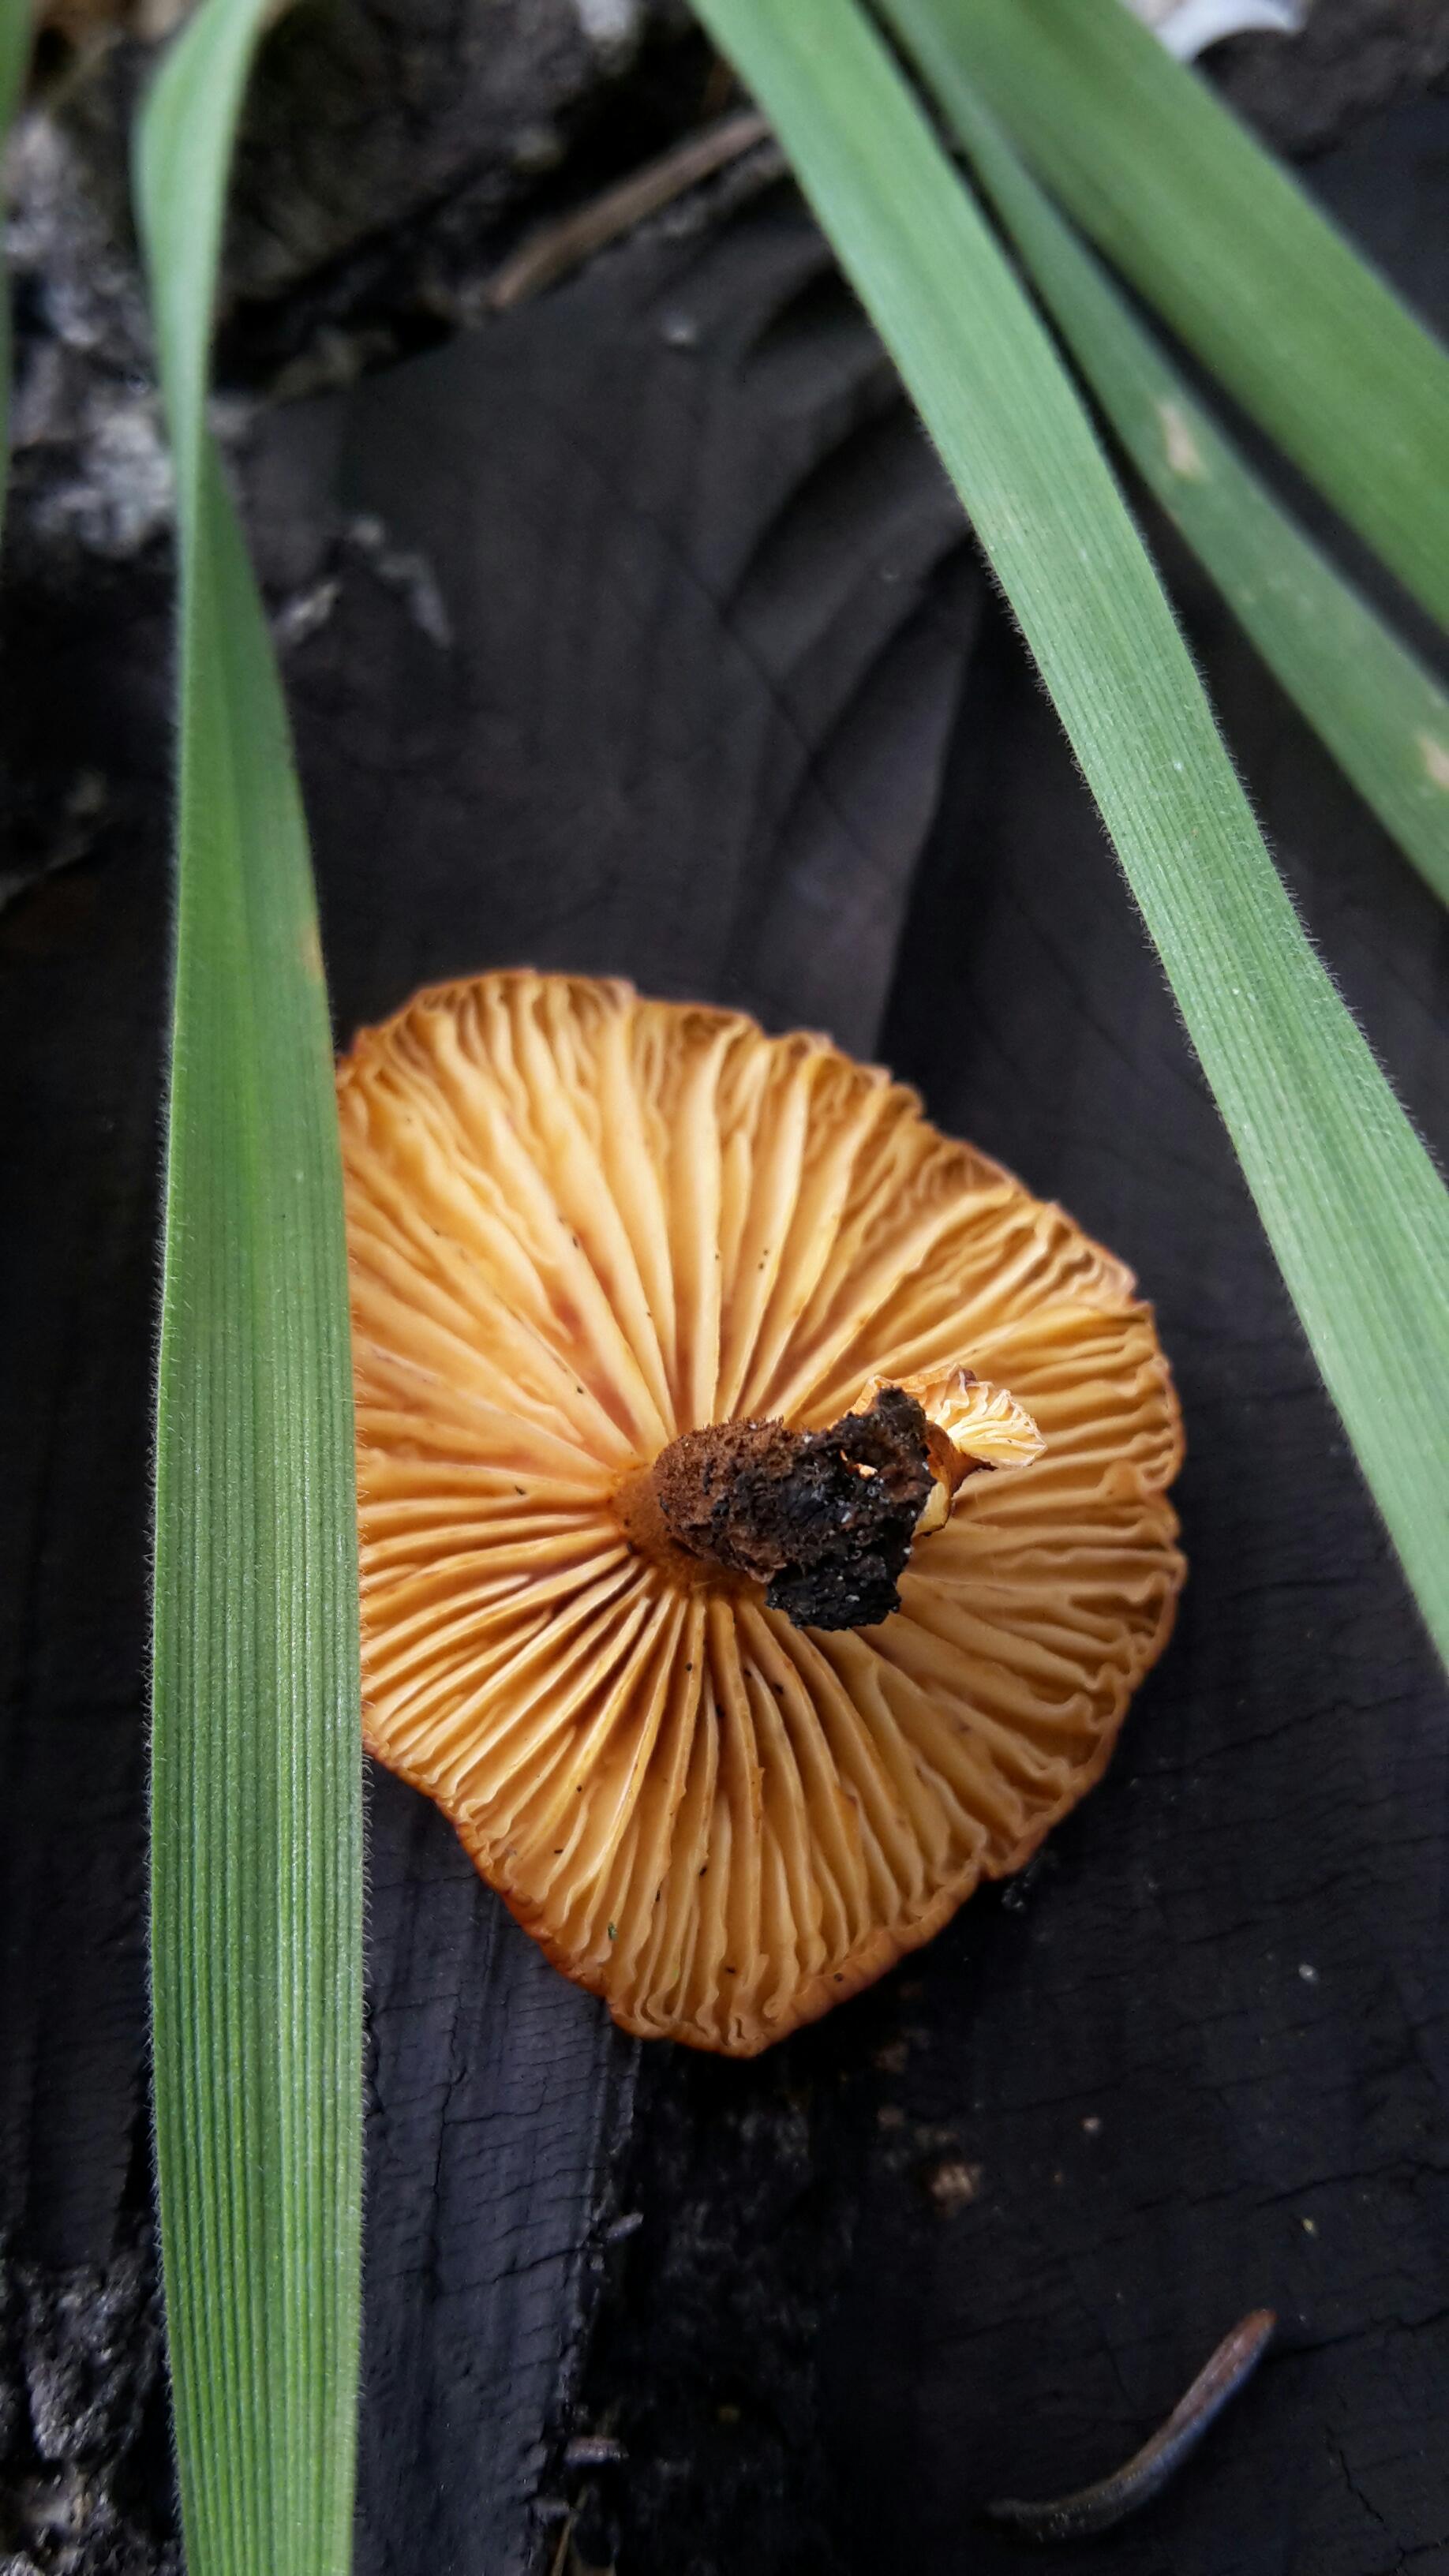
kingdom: Fungi
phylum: Basidiomycota
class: Agaricomycetes
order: Agaricales
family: Physalacriaceae
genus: Flammulina
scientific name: Flammulina velutipes
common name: gul fløjlsfod
